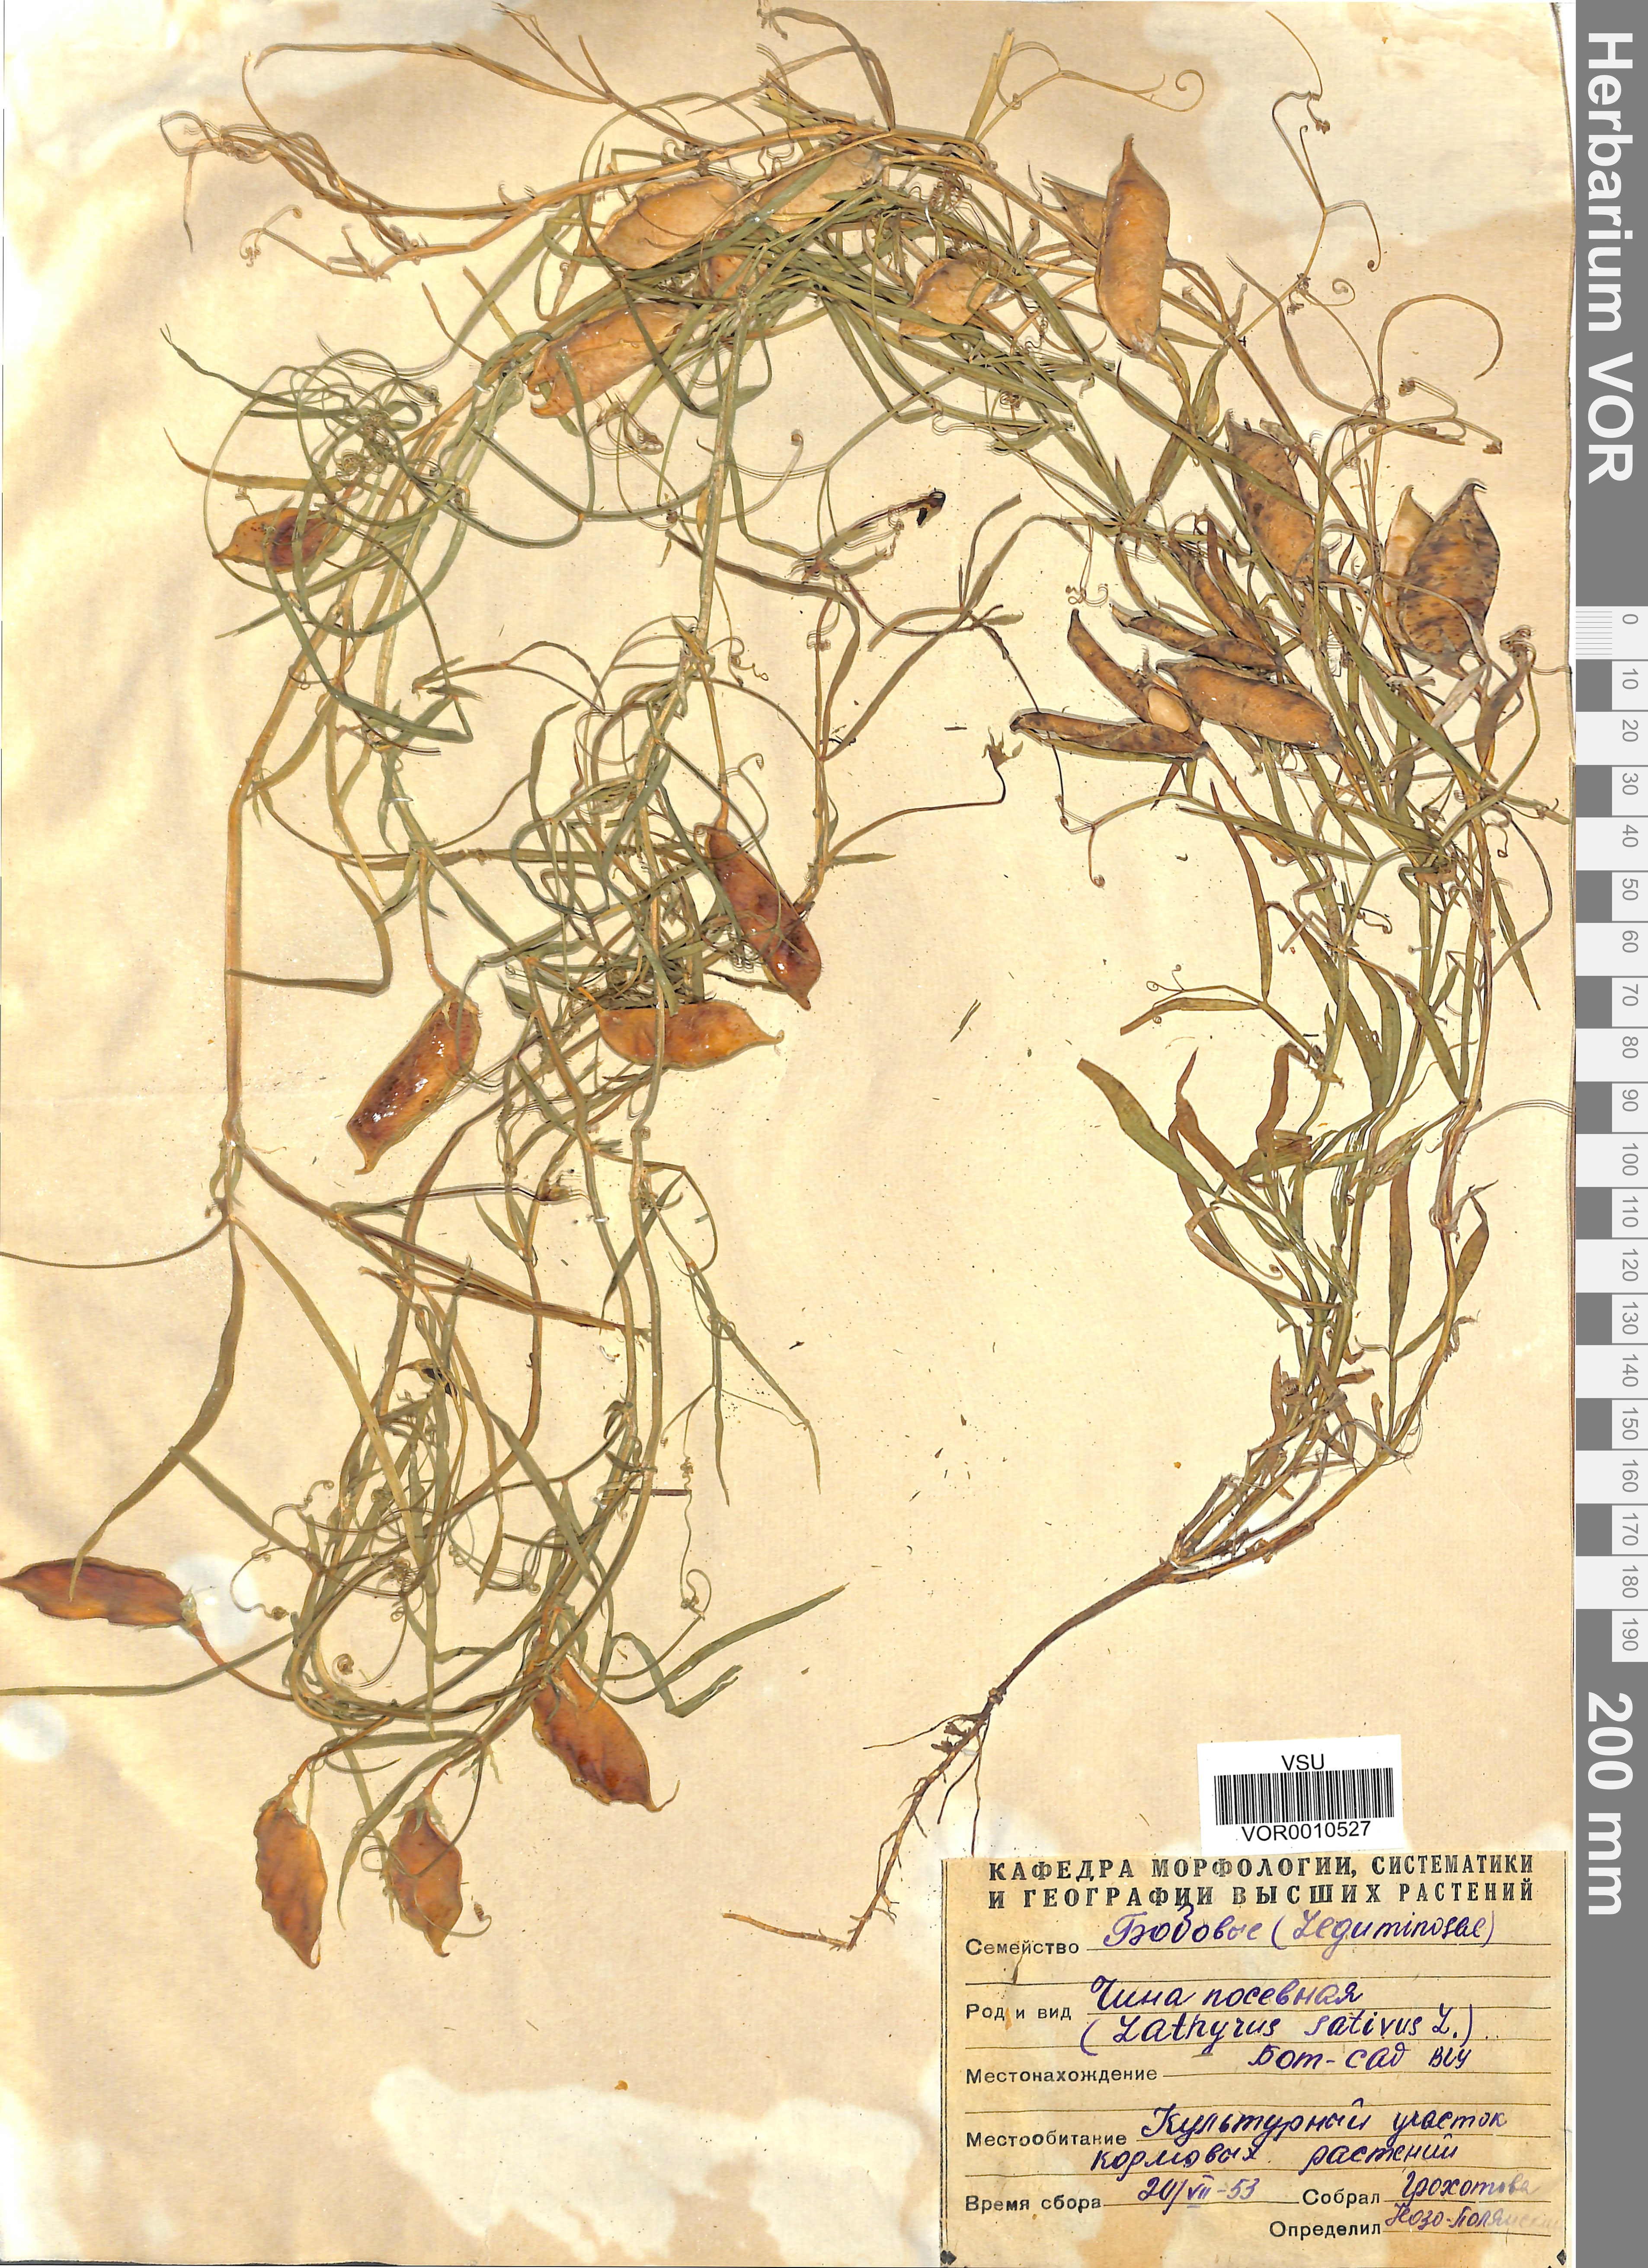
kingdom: Plantae
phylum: Tracheophyta
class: Magnoliopsida
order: Fabales
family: Fabaceae
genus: Lathyrus
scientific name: Lathyrus sativus
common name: Indian pea
